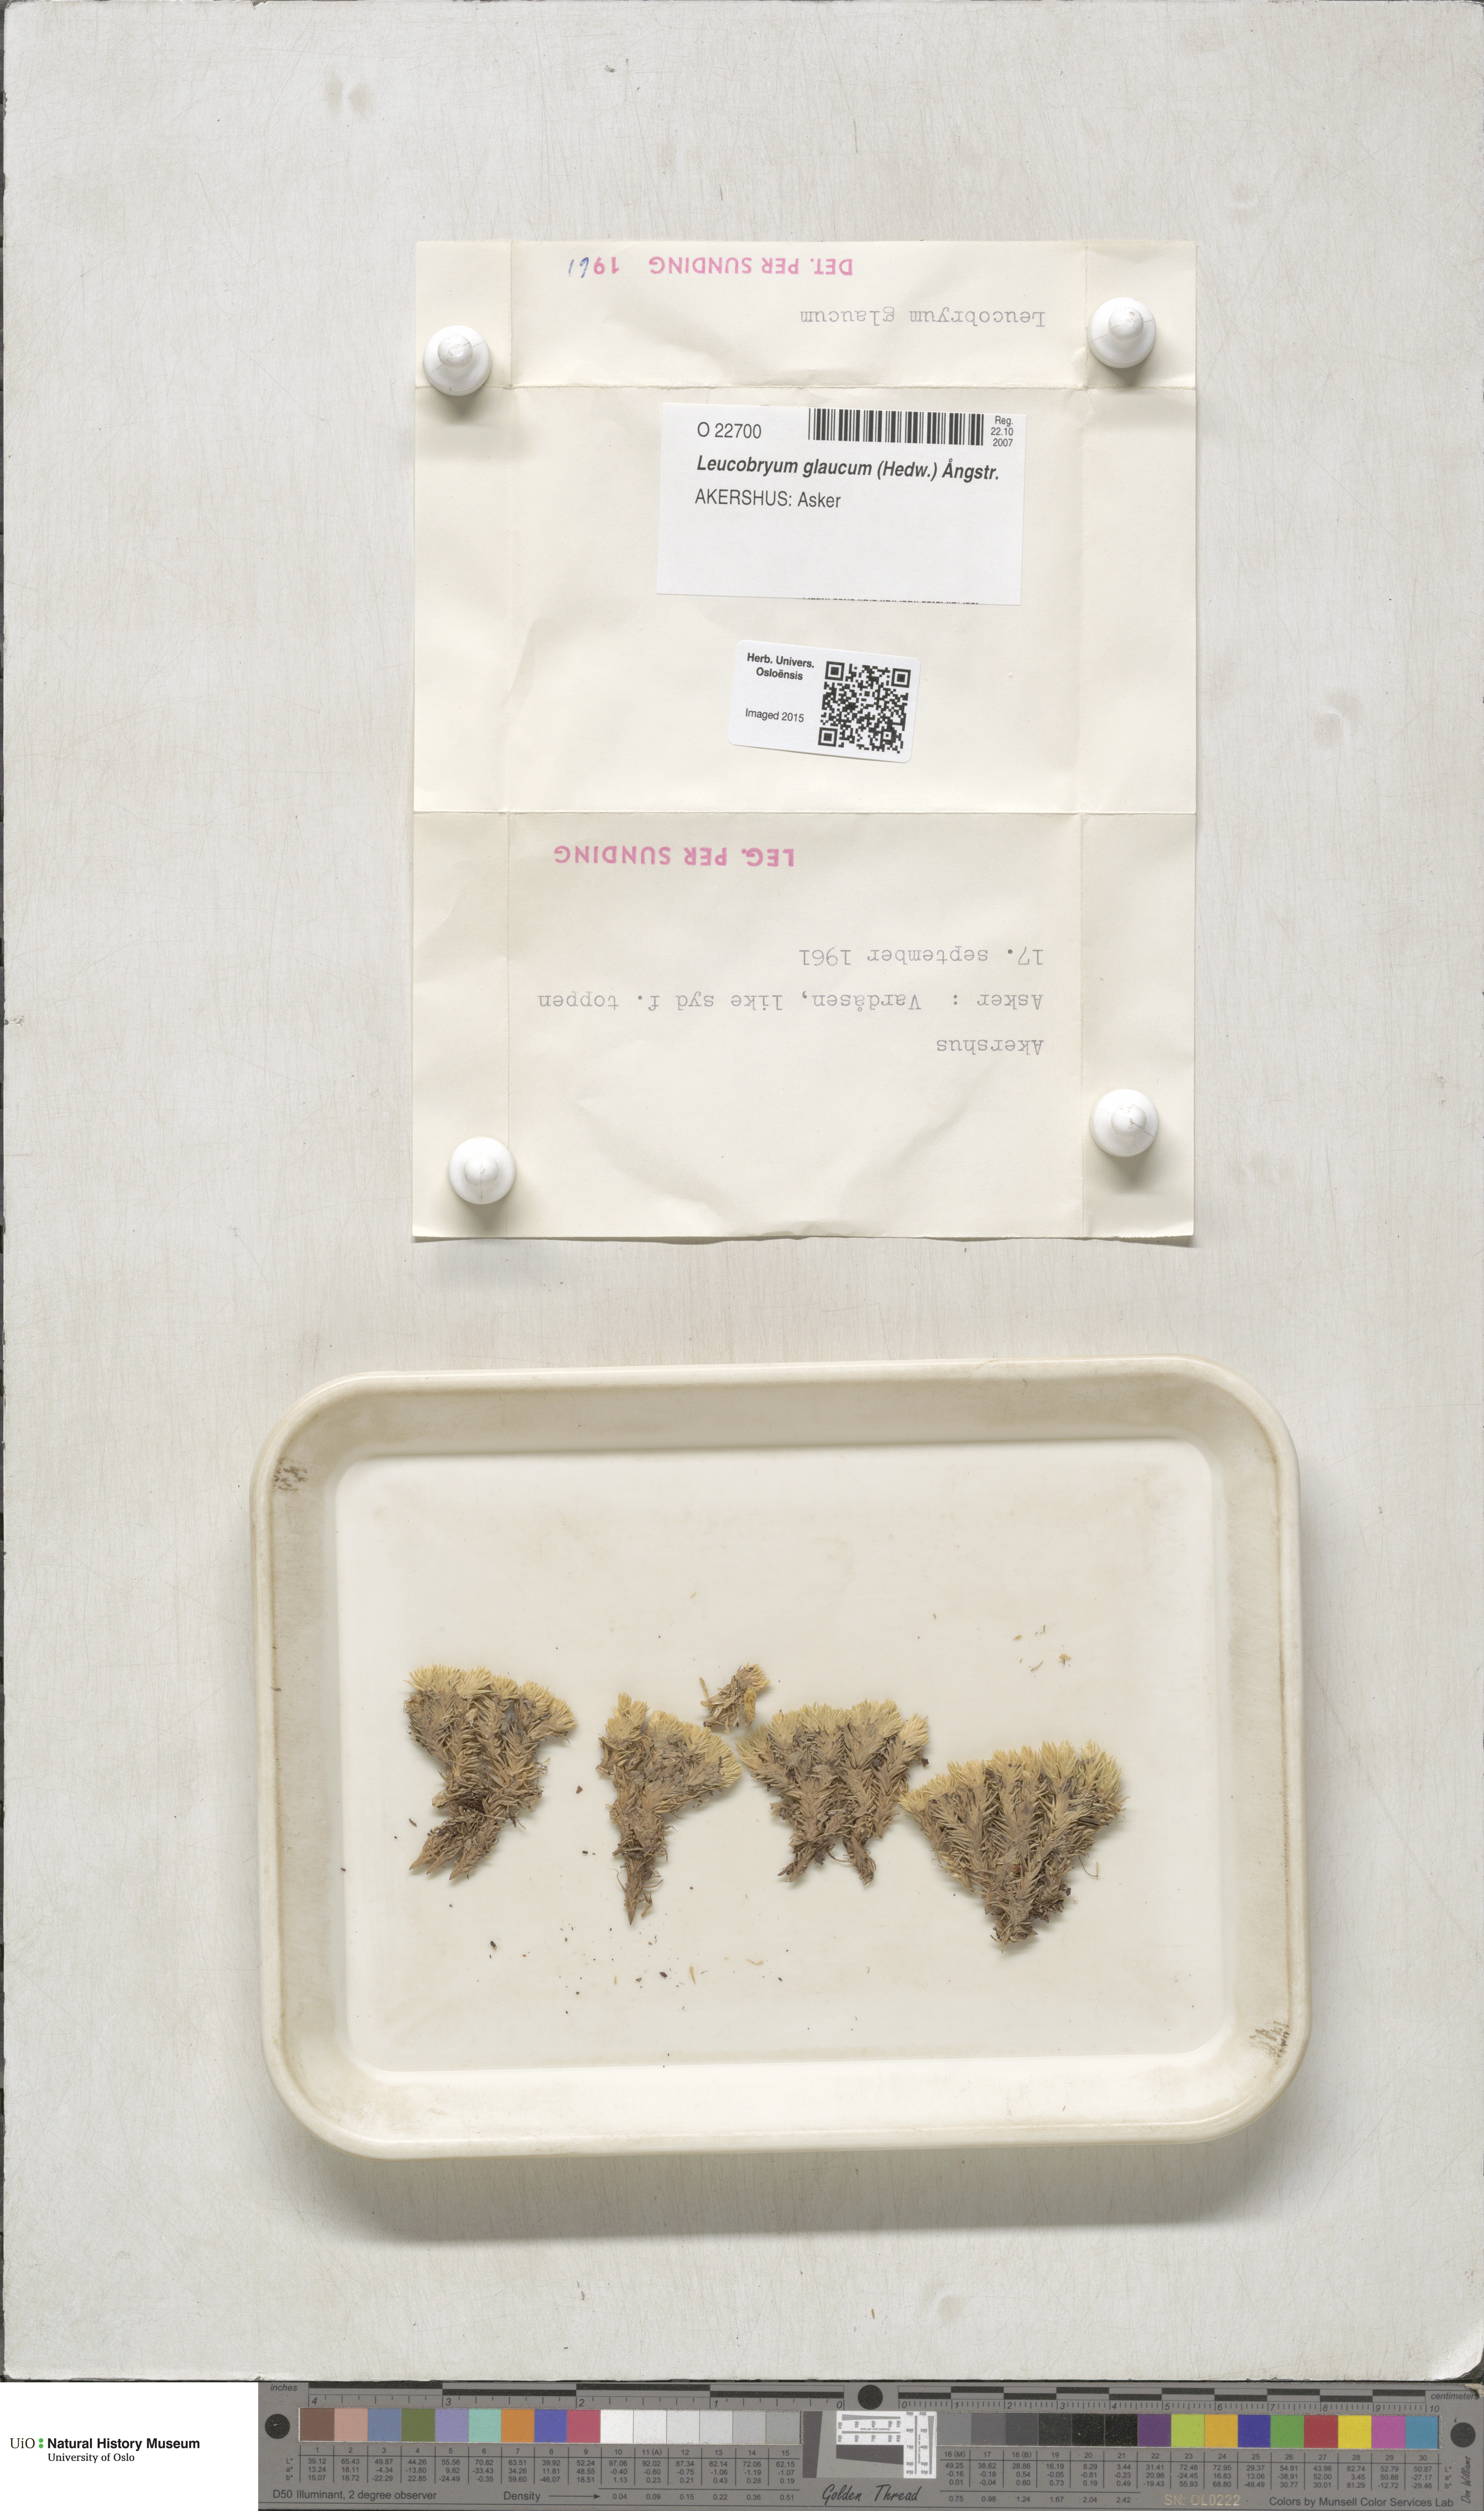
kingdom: Plantae
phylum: Bryophyta
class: Bryopsida
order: Dicranales
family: Leucobryaceae
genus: Leucobryum
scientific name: Leucobryum glaucum
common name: Large white-moss
